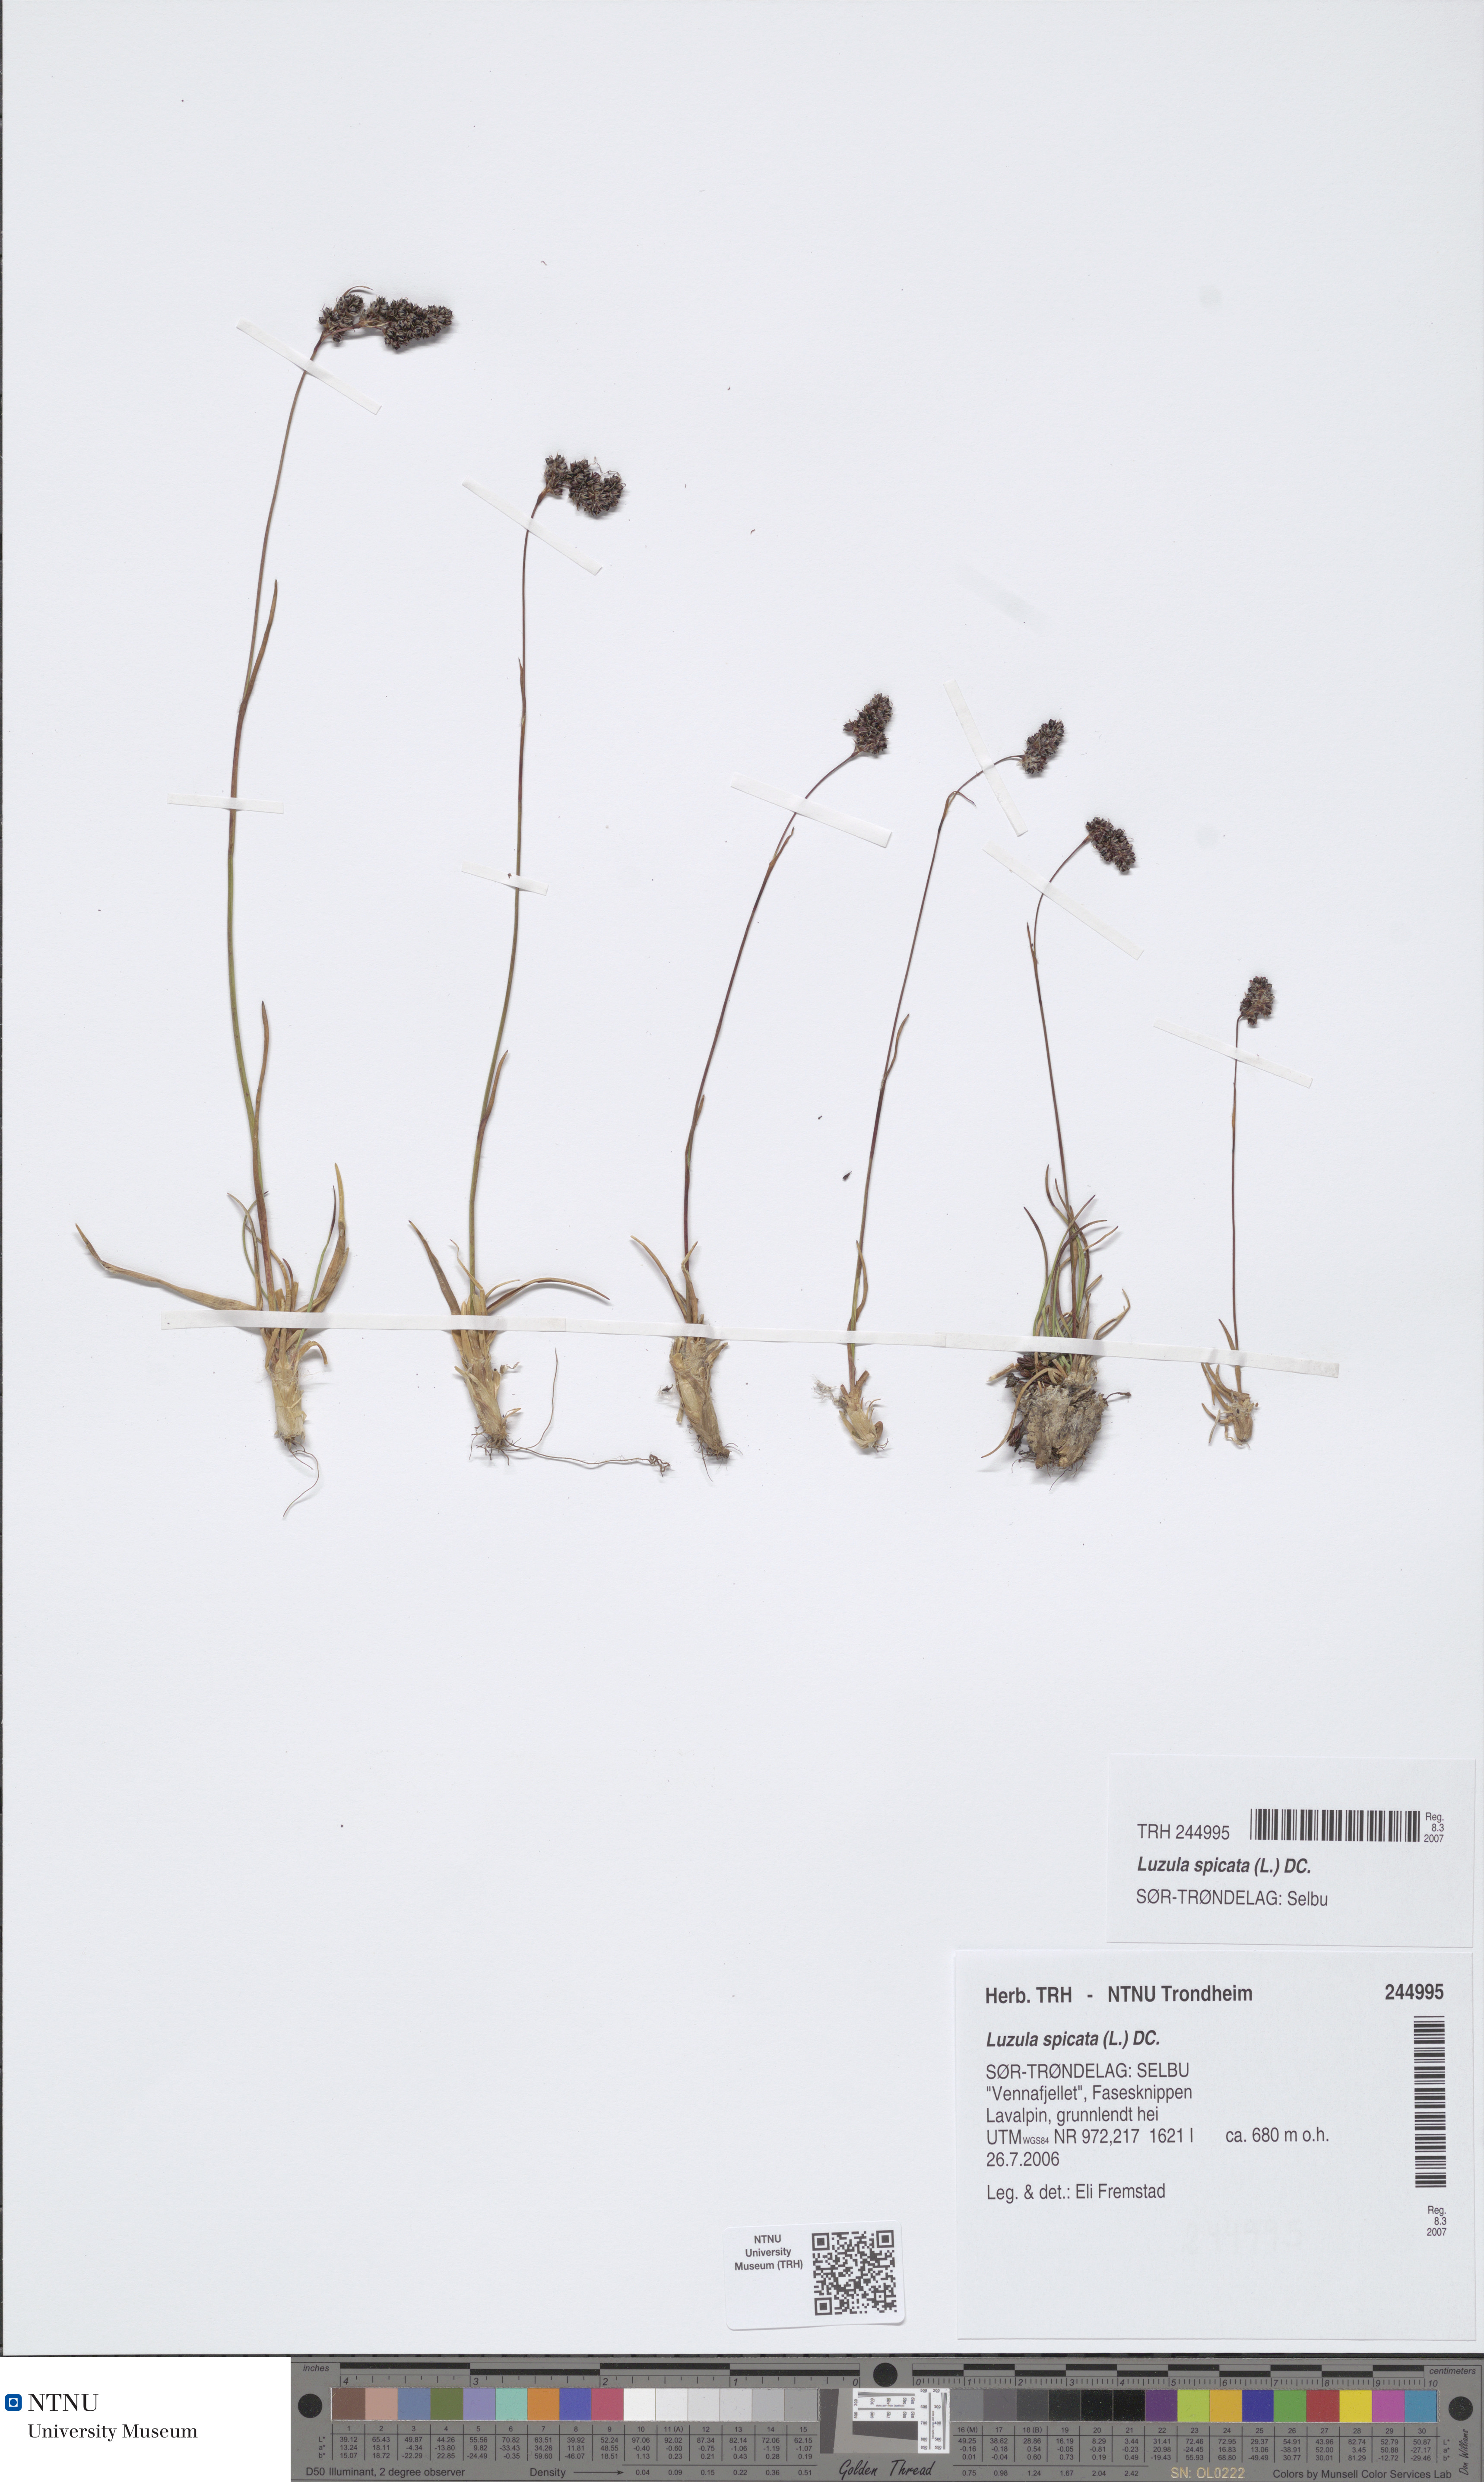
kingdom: Plantae
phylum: Tracheophyta
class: Liliopsida
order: Poales
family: Juncaceae
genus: Luzula
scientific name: Luzula spicata
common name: Spiked wood-rush
